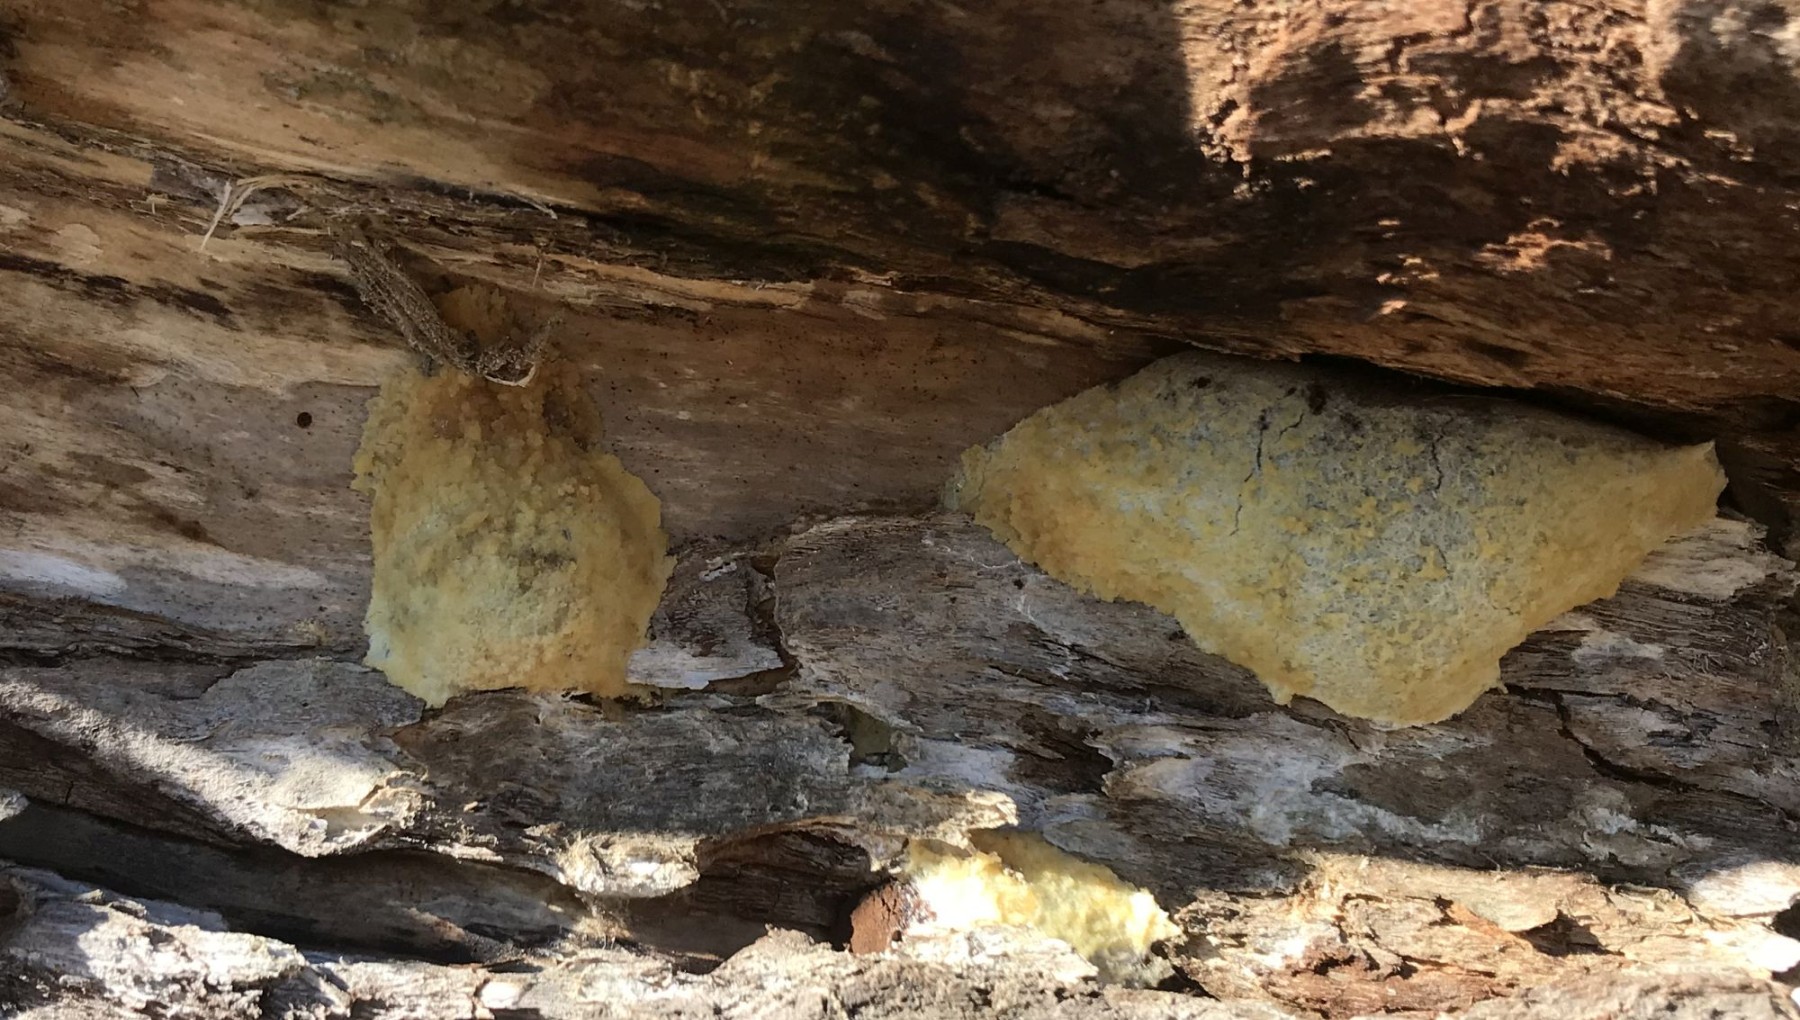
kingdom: Protozoa
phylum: Mycetozoa
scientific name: Mycetozoa
